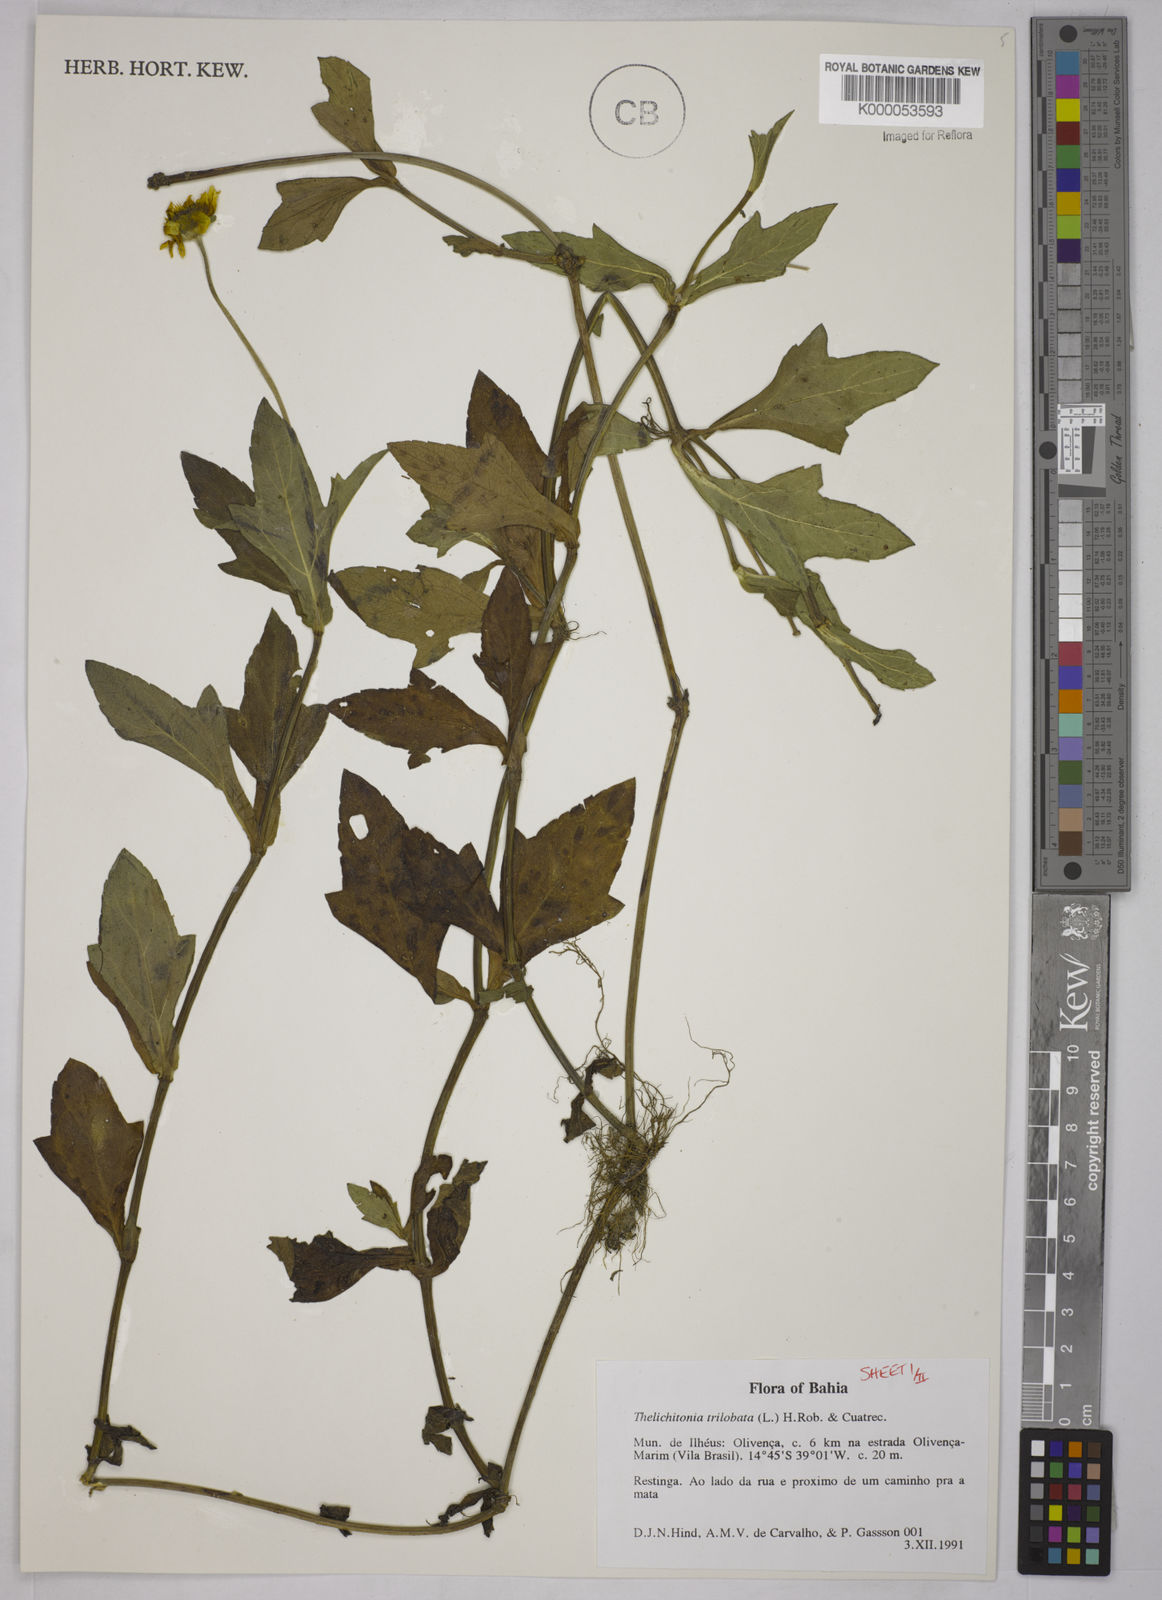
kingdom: Plantae
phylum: Tracheophyta
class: Magnoliopsida
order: Asterales
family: Asteraceae
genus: Sphagneticola
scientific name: Sphagneticola trilobata
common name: Bay biscayne creeping-oxeye
